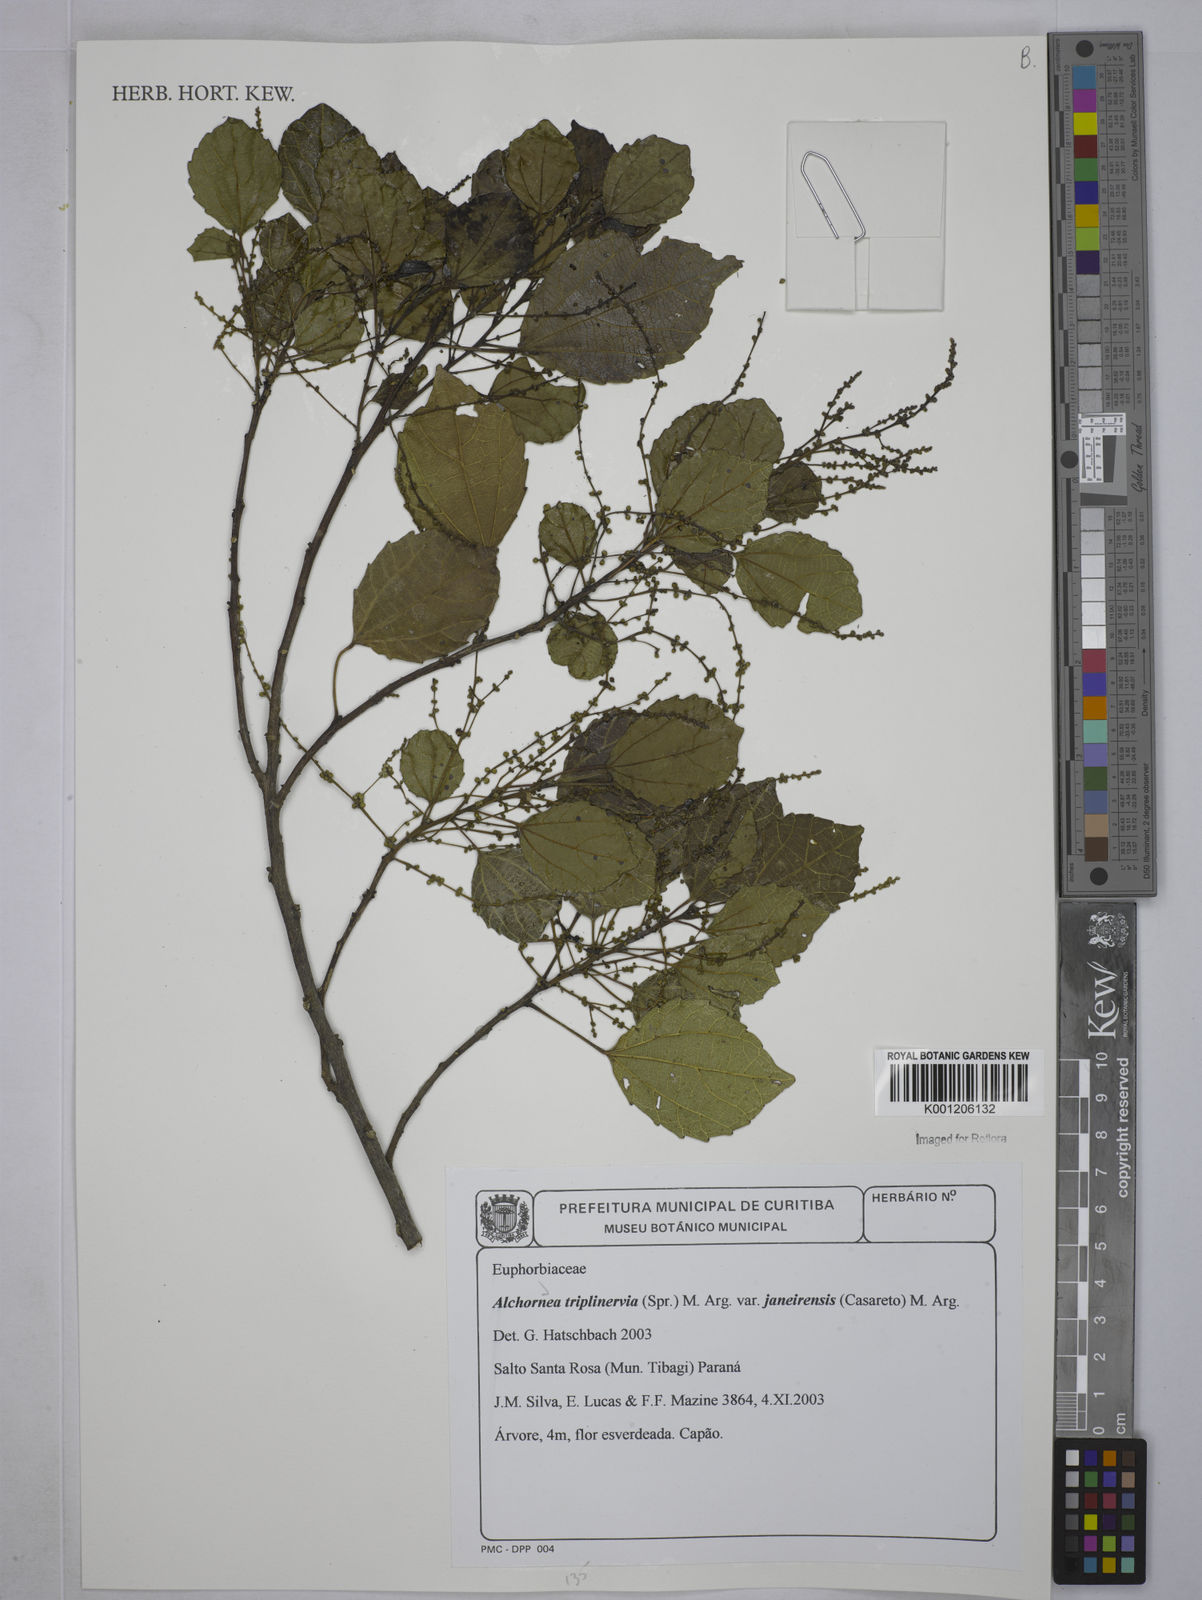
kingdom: Plantae
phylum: Tracheophyta
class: Magnoliopsida
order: Malpighiales
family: Euphorbiaceae
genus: Alchornea
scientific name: Alchornea
